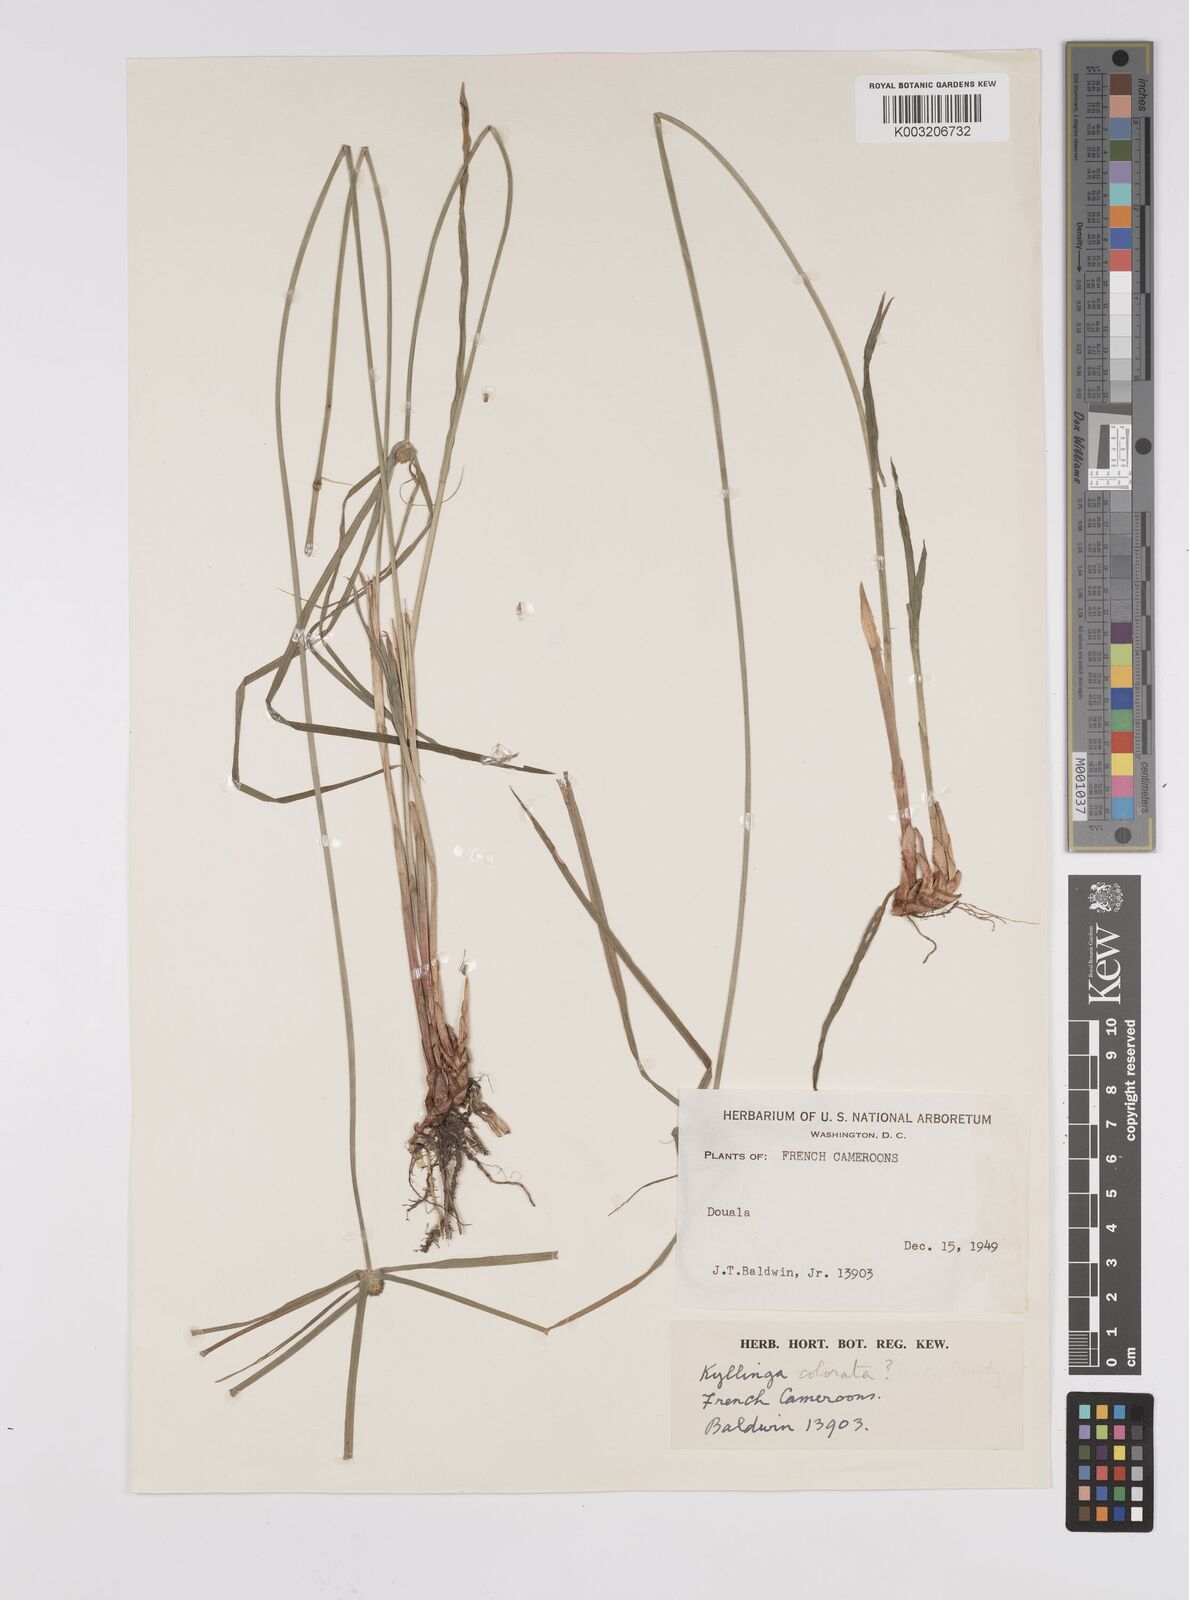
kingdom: Plantae
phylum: Tracheophyta
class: Liliopsida
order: Poales
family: Cyperaceae
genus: Cyperus
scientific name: Cyperus
